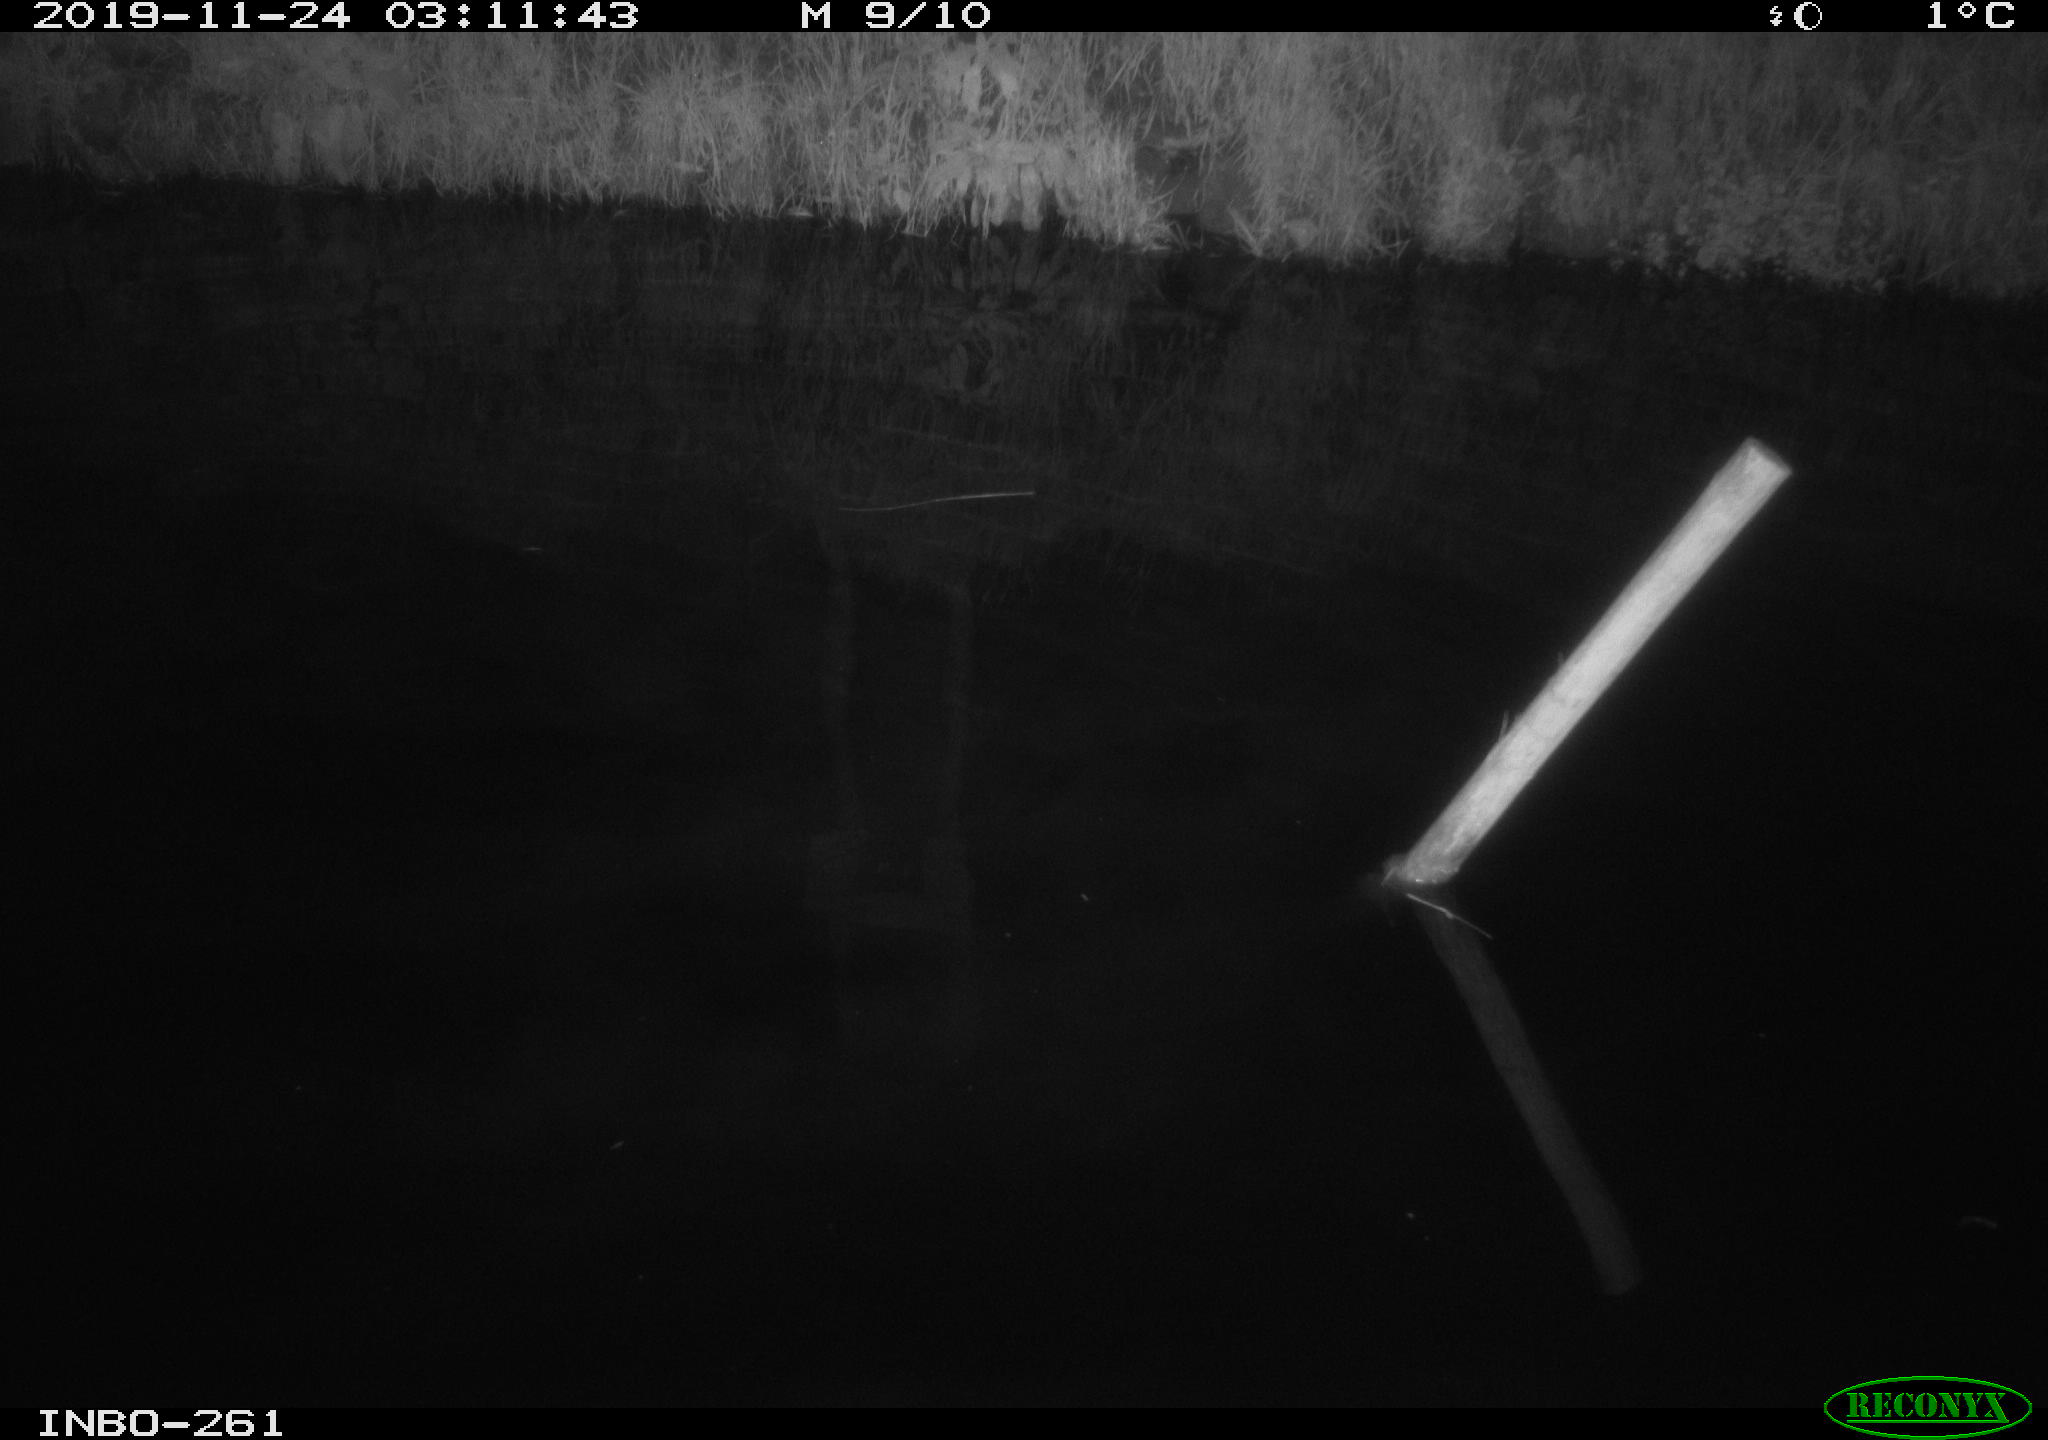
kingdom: Animalia
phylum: Chordata
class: Aves
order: Anseriformes
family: Anatidae
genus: Anas
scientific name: Anas platyrhynchos
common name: Mallard
